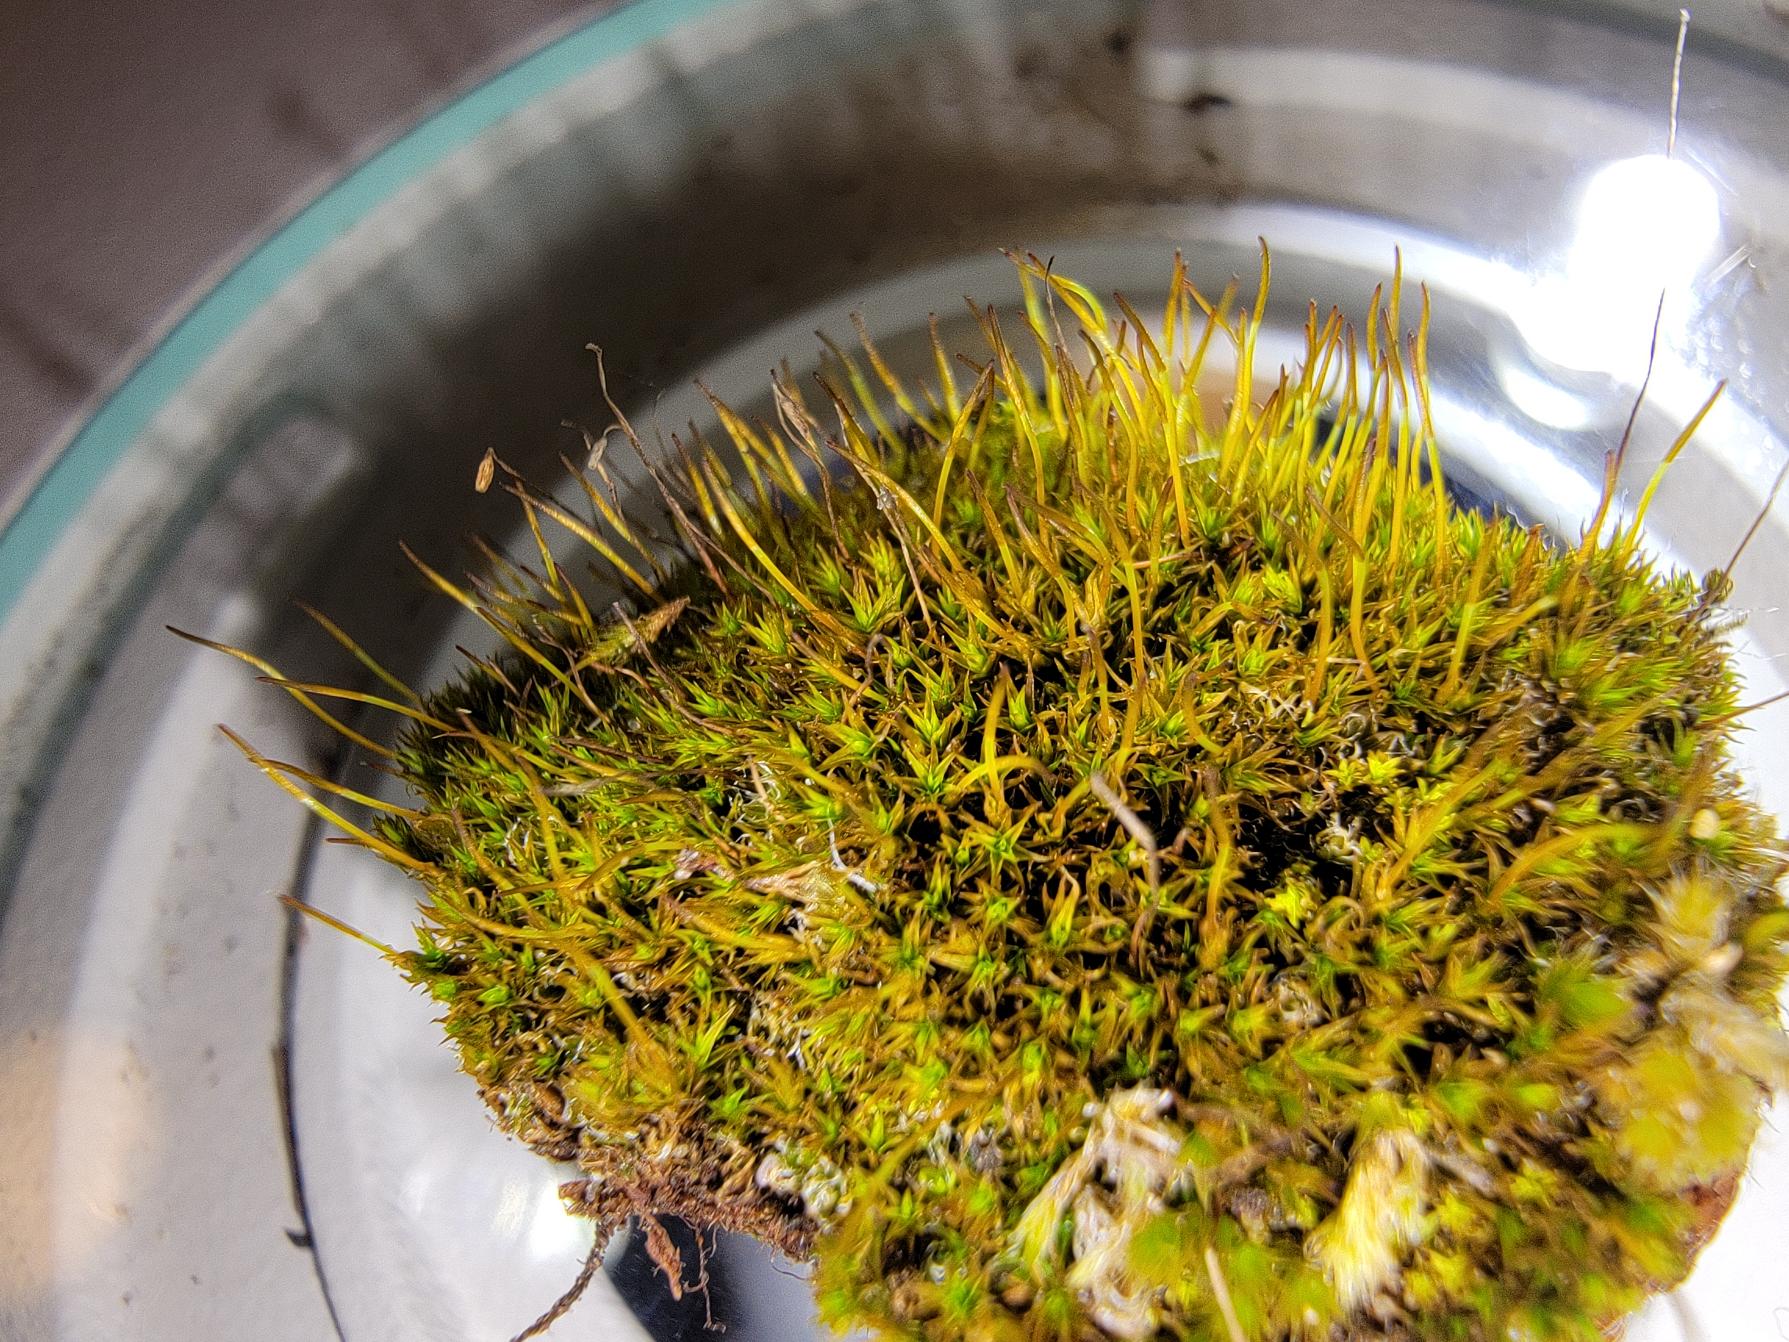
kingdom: Plantae
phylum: Bryophyta
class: Bryopsida
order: Pottiales
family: Pottiaceae
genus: Didymodon
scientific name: Didymodon rigidulus
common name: Stiv kalktuemos
